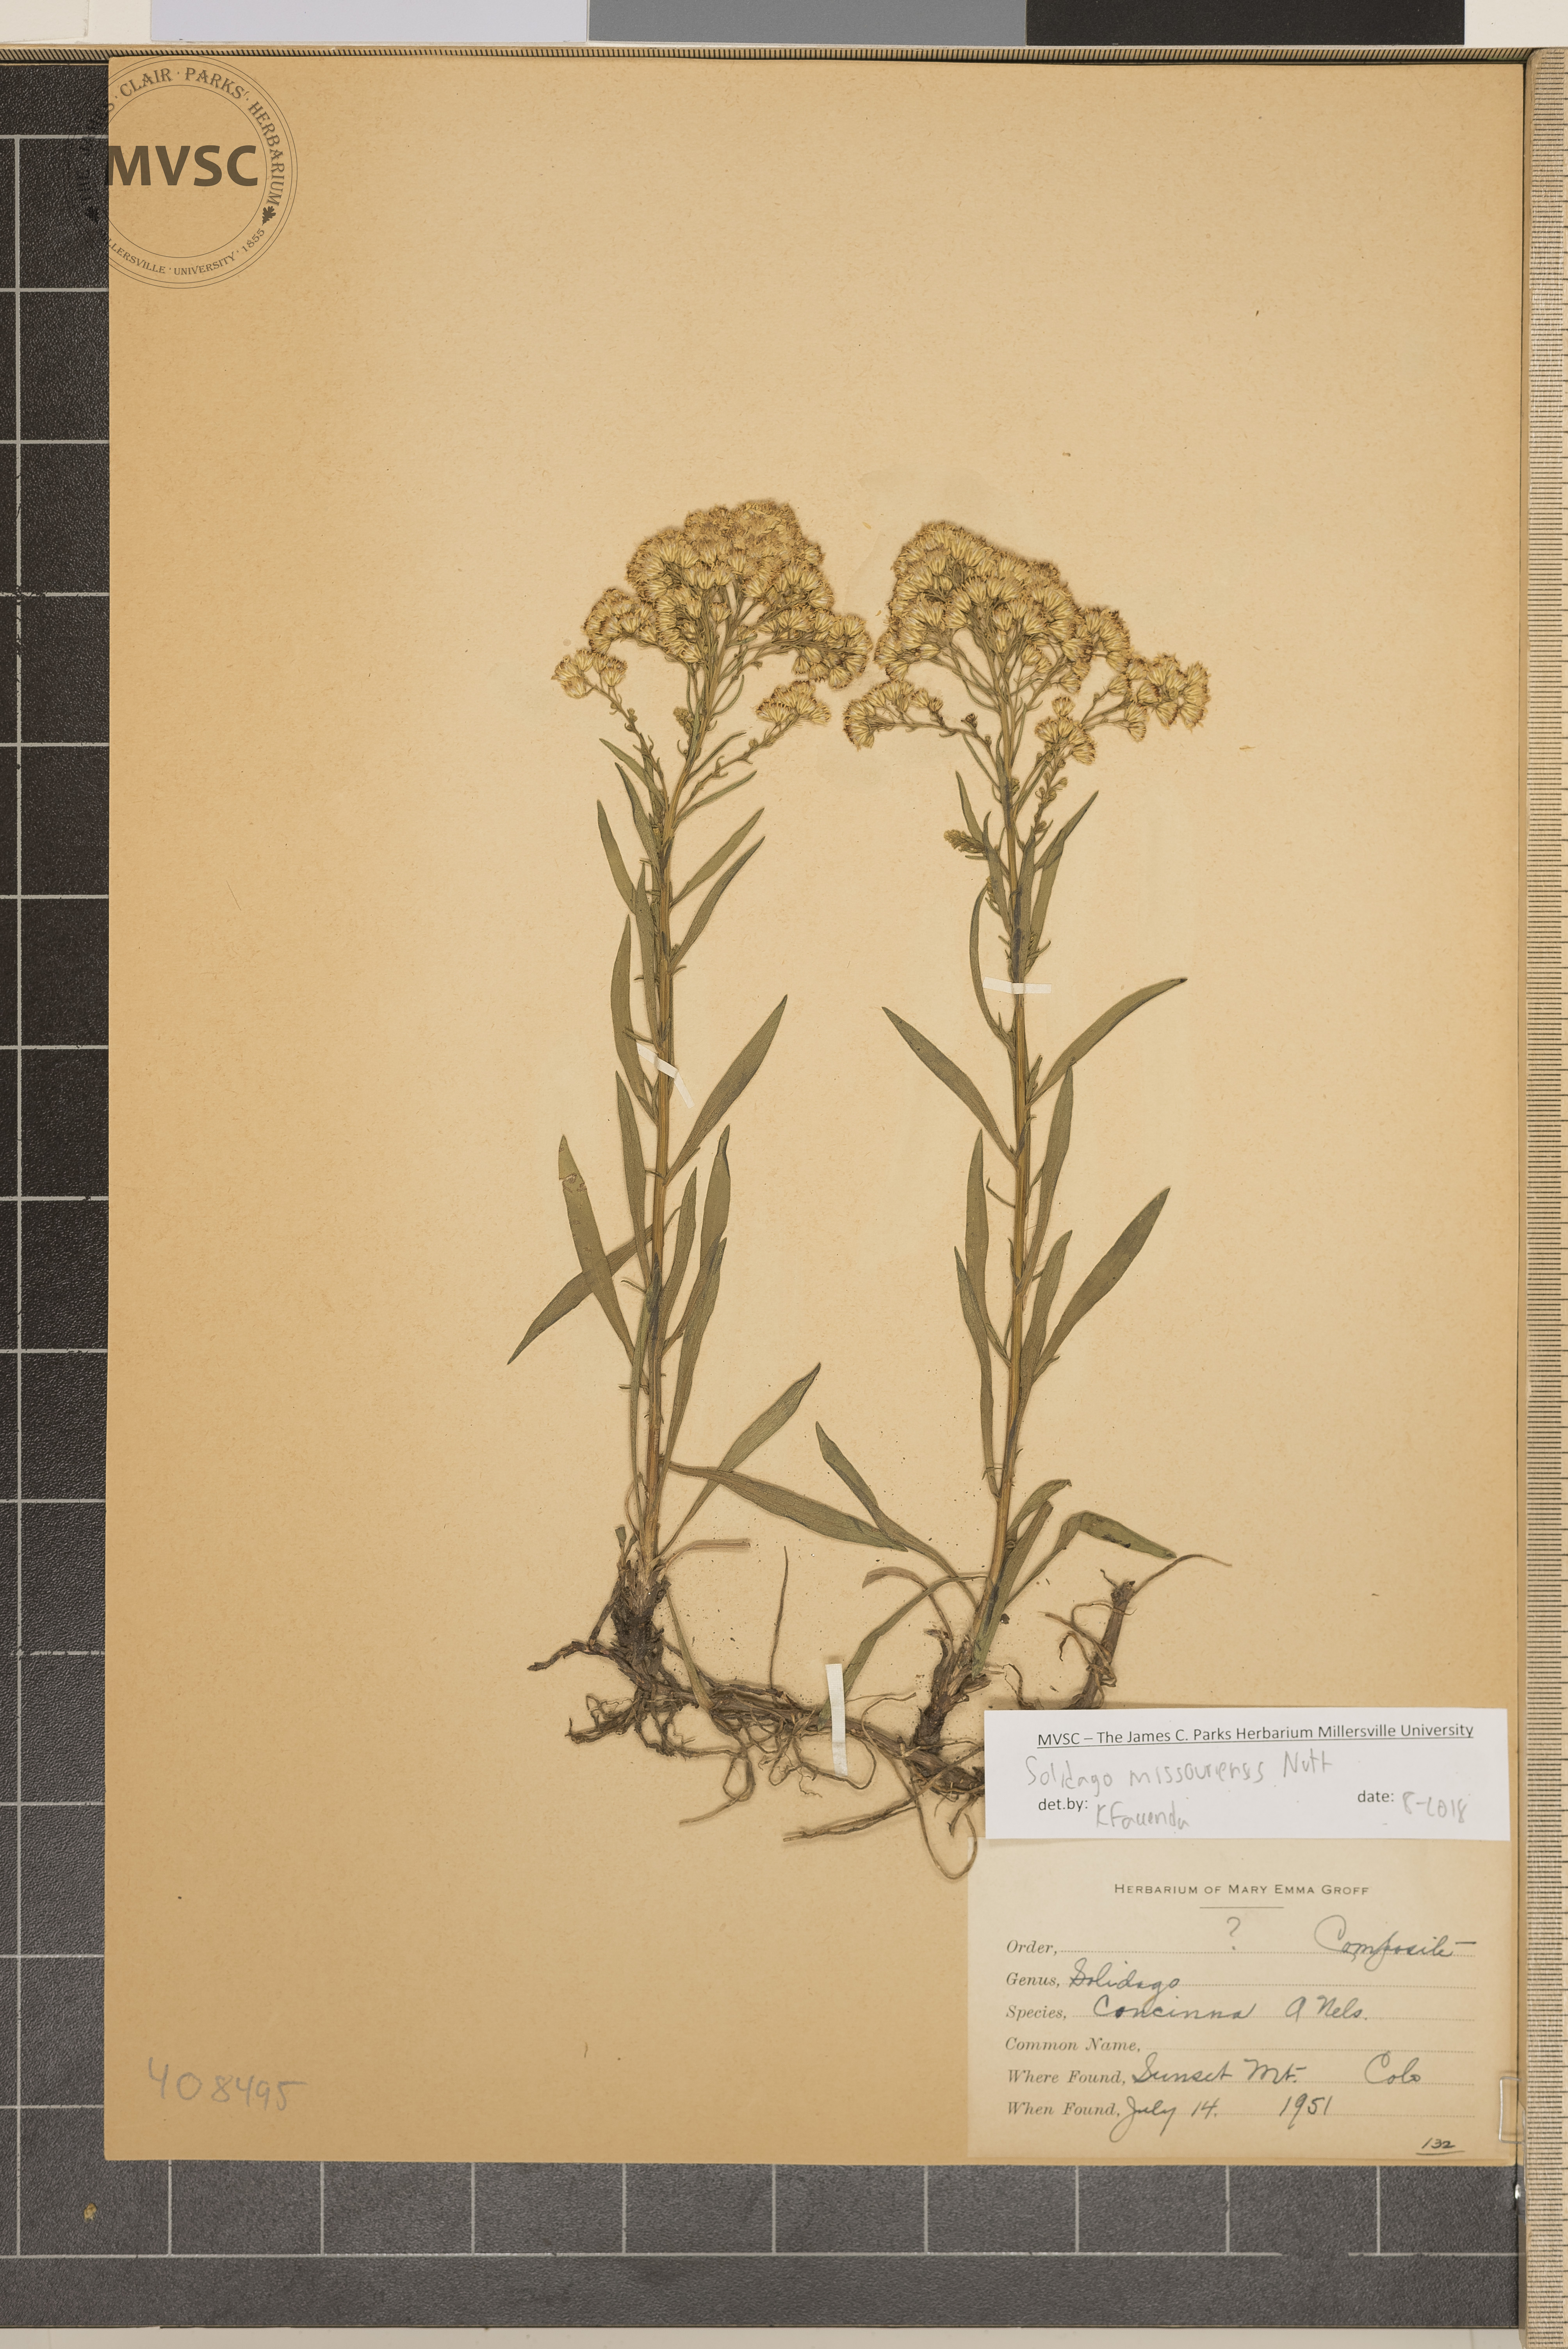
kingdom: Plantae
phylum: Tracheophyta
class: Magnoliopsida
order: Asterales
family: Asteraceae
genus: Solidago
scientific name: Solidago missouriensis
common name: Prairie goldenrod
